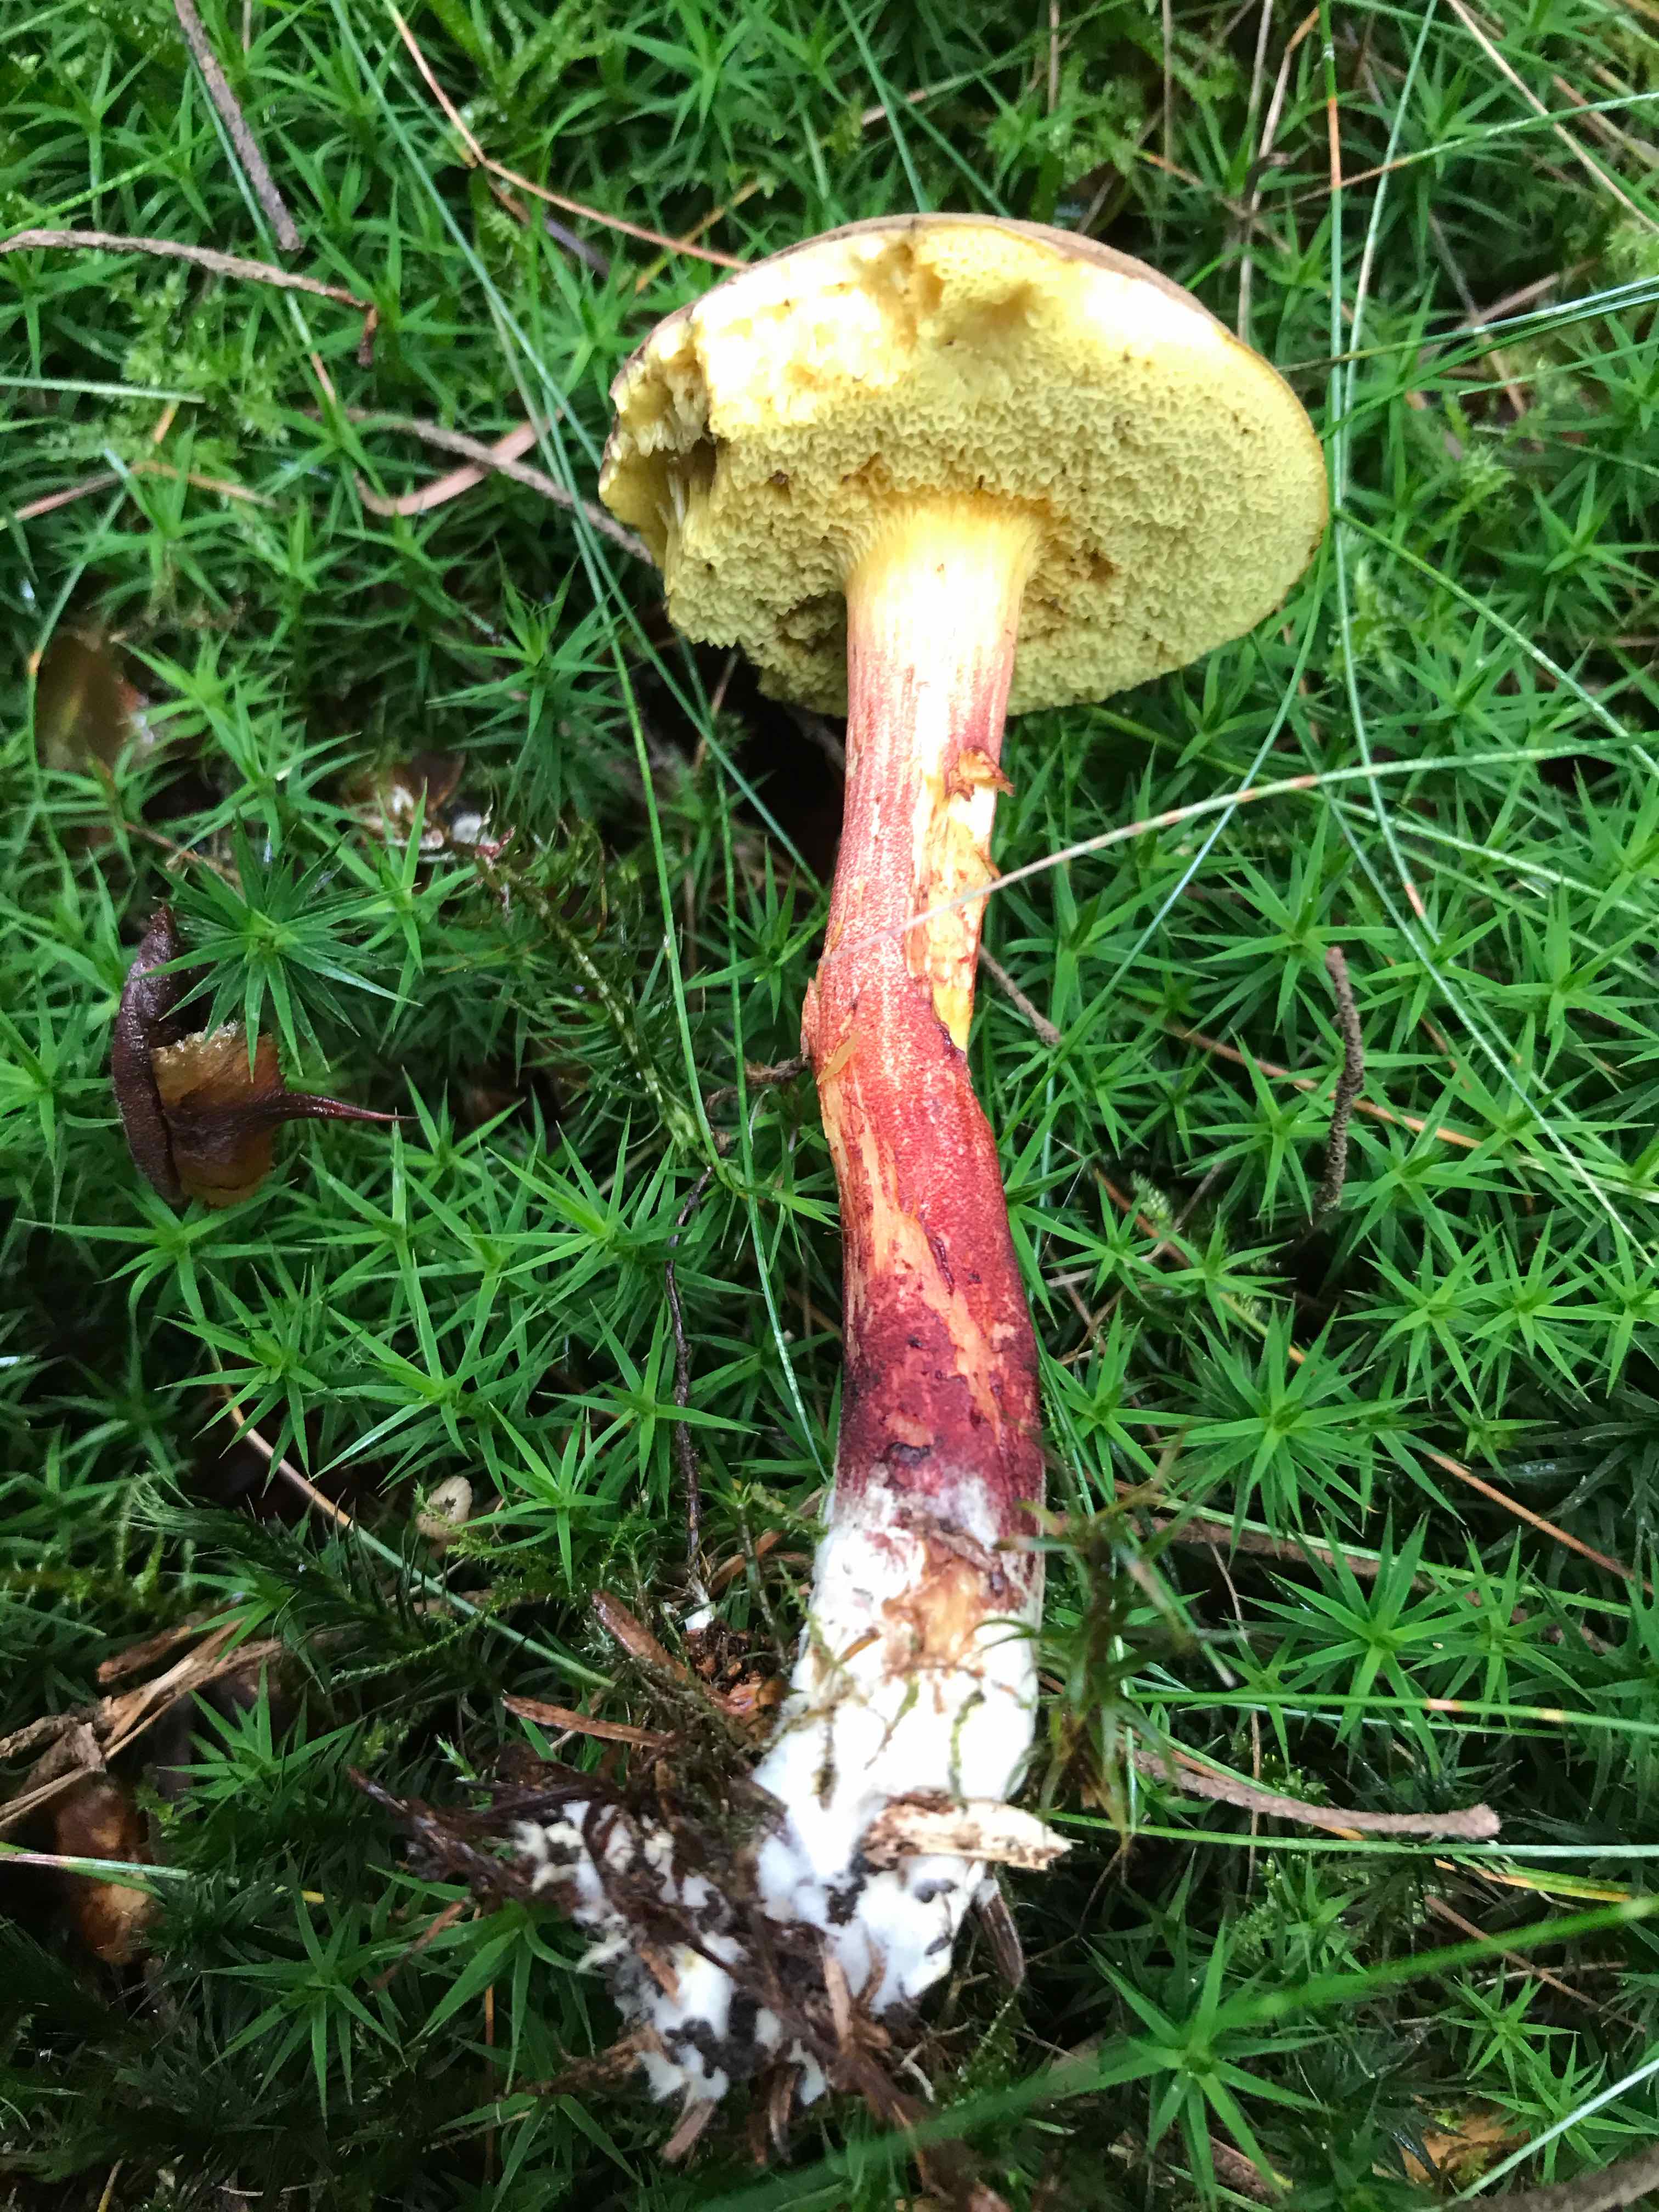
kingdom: Fungi
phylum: Basidiomycota
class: Agaricomycetes
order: Boletales
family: Boletaceae
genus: Xerocomellus
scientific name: Xerocomellus chrysenteron
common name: rødsprukken rørhat
